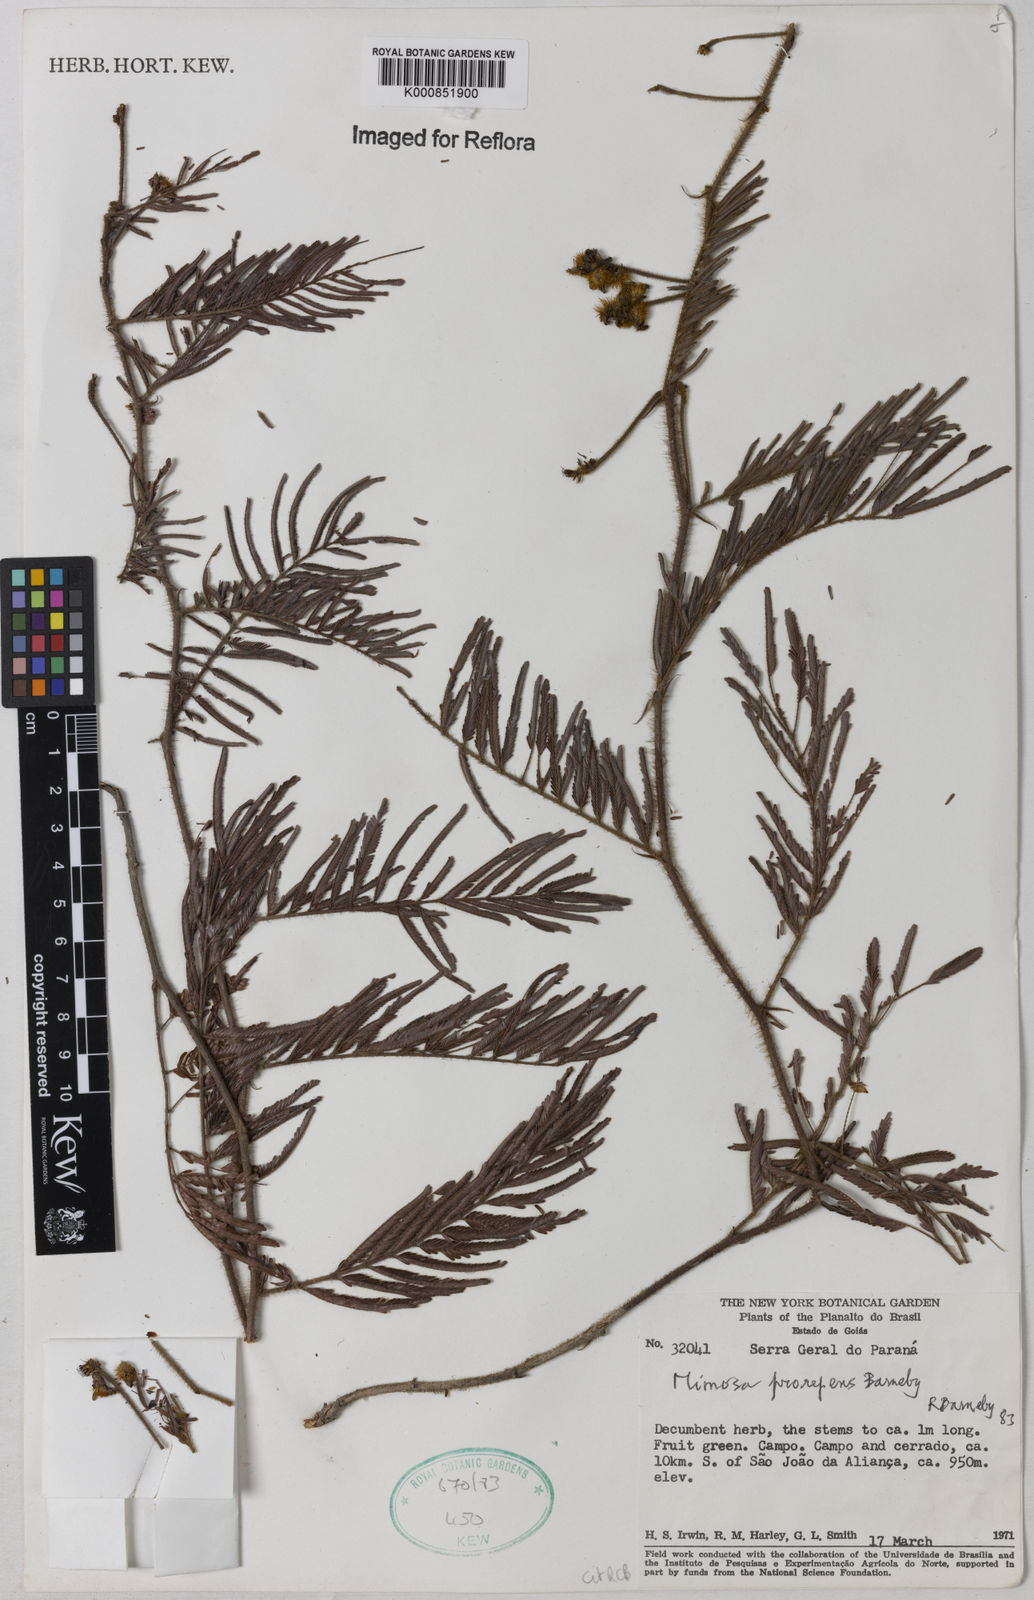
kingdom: Plantae
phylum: Tracheophyta
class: Magnoliopsida
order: Fabales
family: Fabaceae
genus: Mimosa
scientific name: Mimosa prorepens
